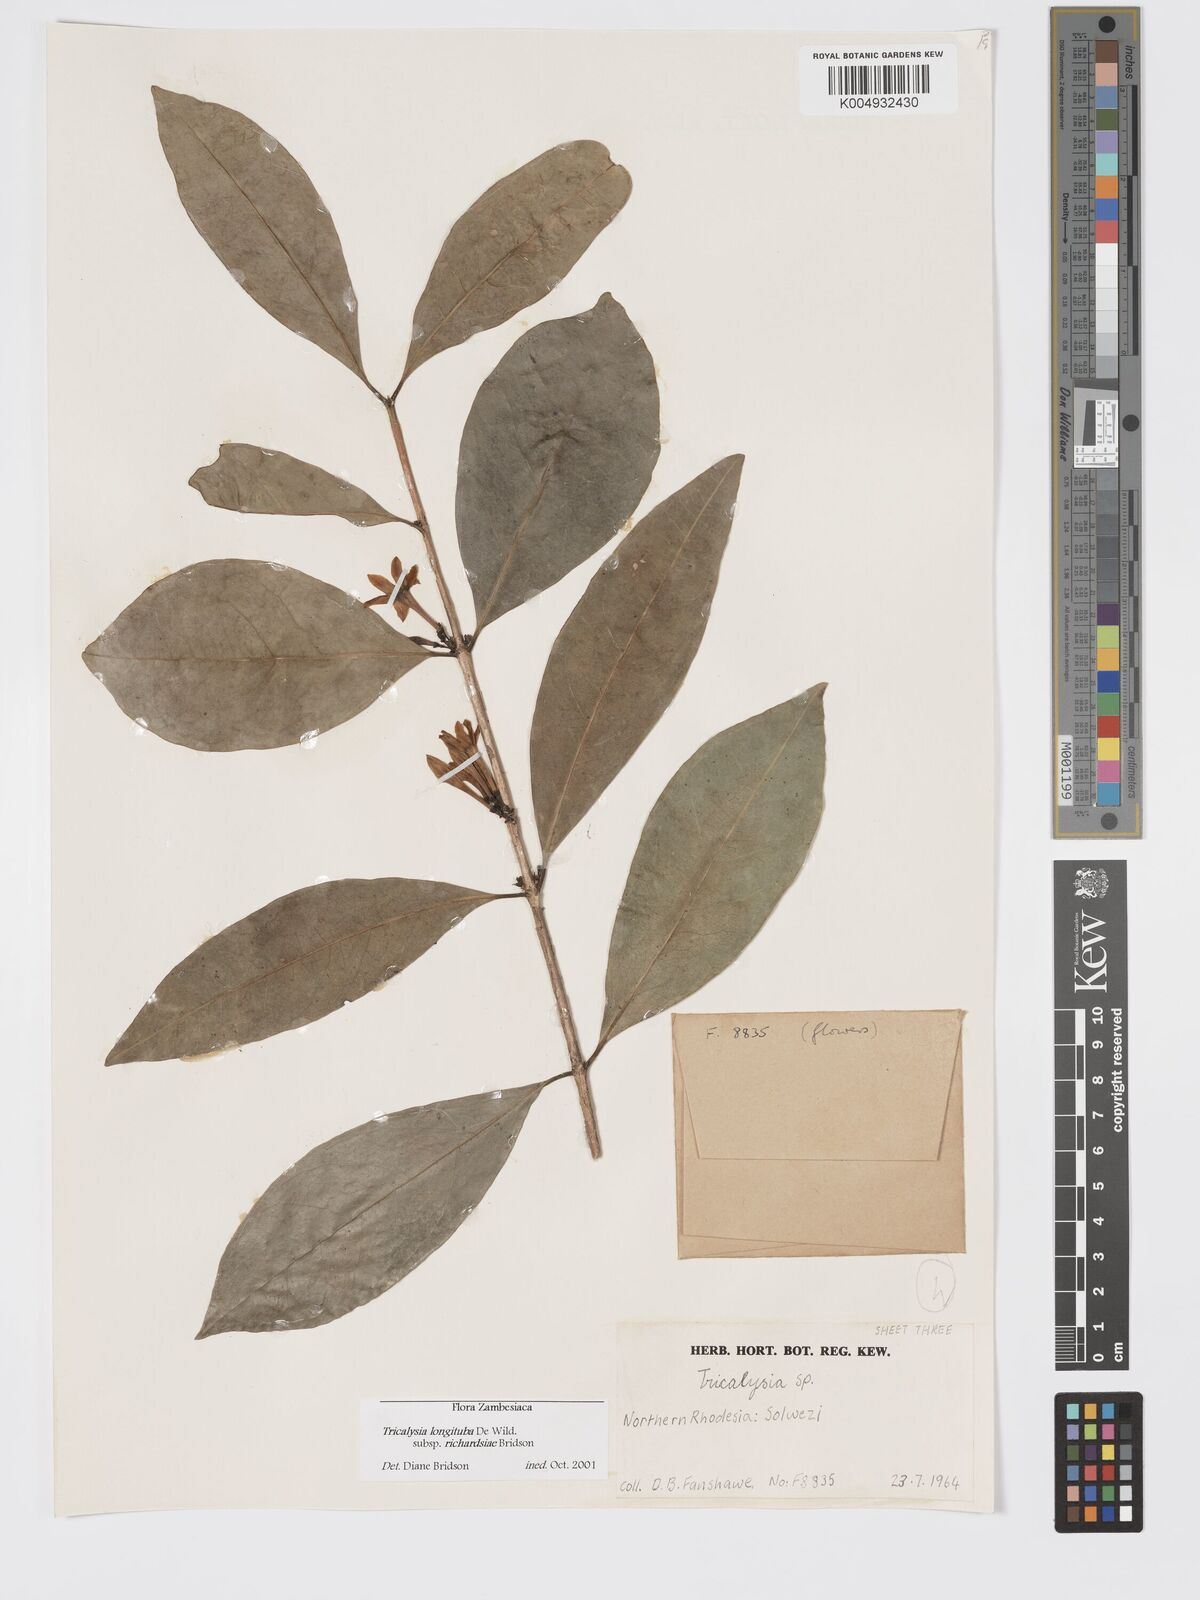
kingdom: Plantae
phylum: Tracheophyta
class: Magnoliopsida
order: Gentianales
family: Rubiaceae
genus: Tricalysia
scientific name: Tricalysia
